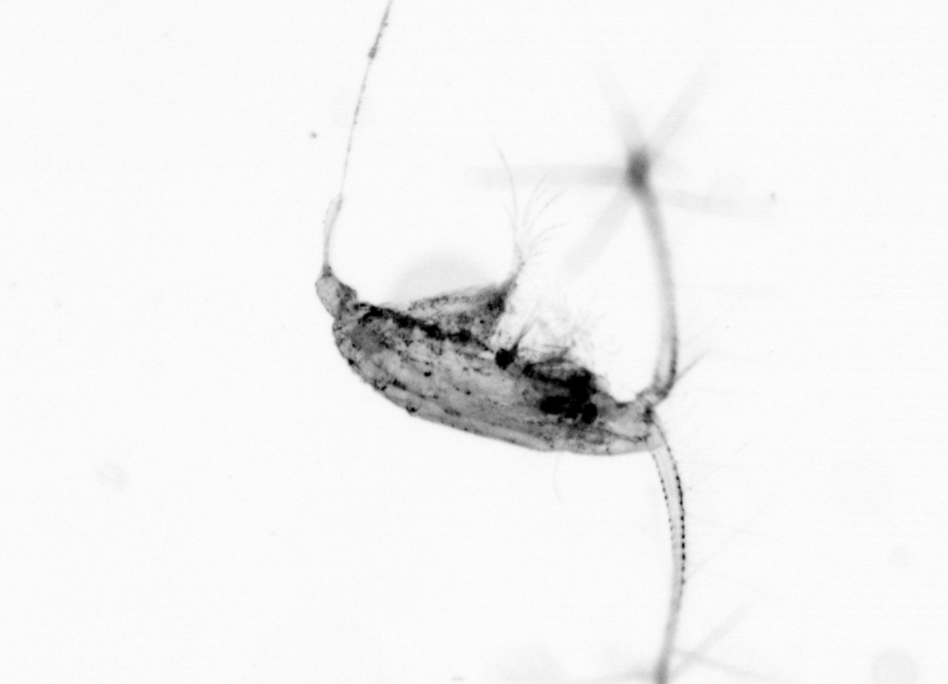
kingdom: Animalia
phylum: Arthropoda
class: Copepoda
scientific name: Copepoda
